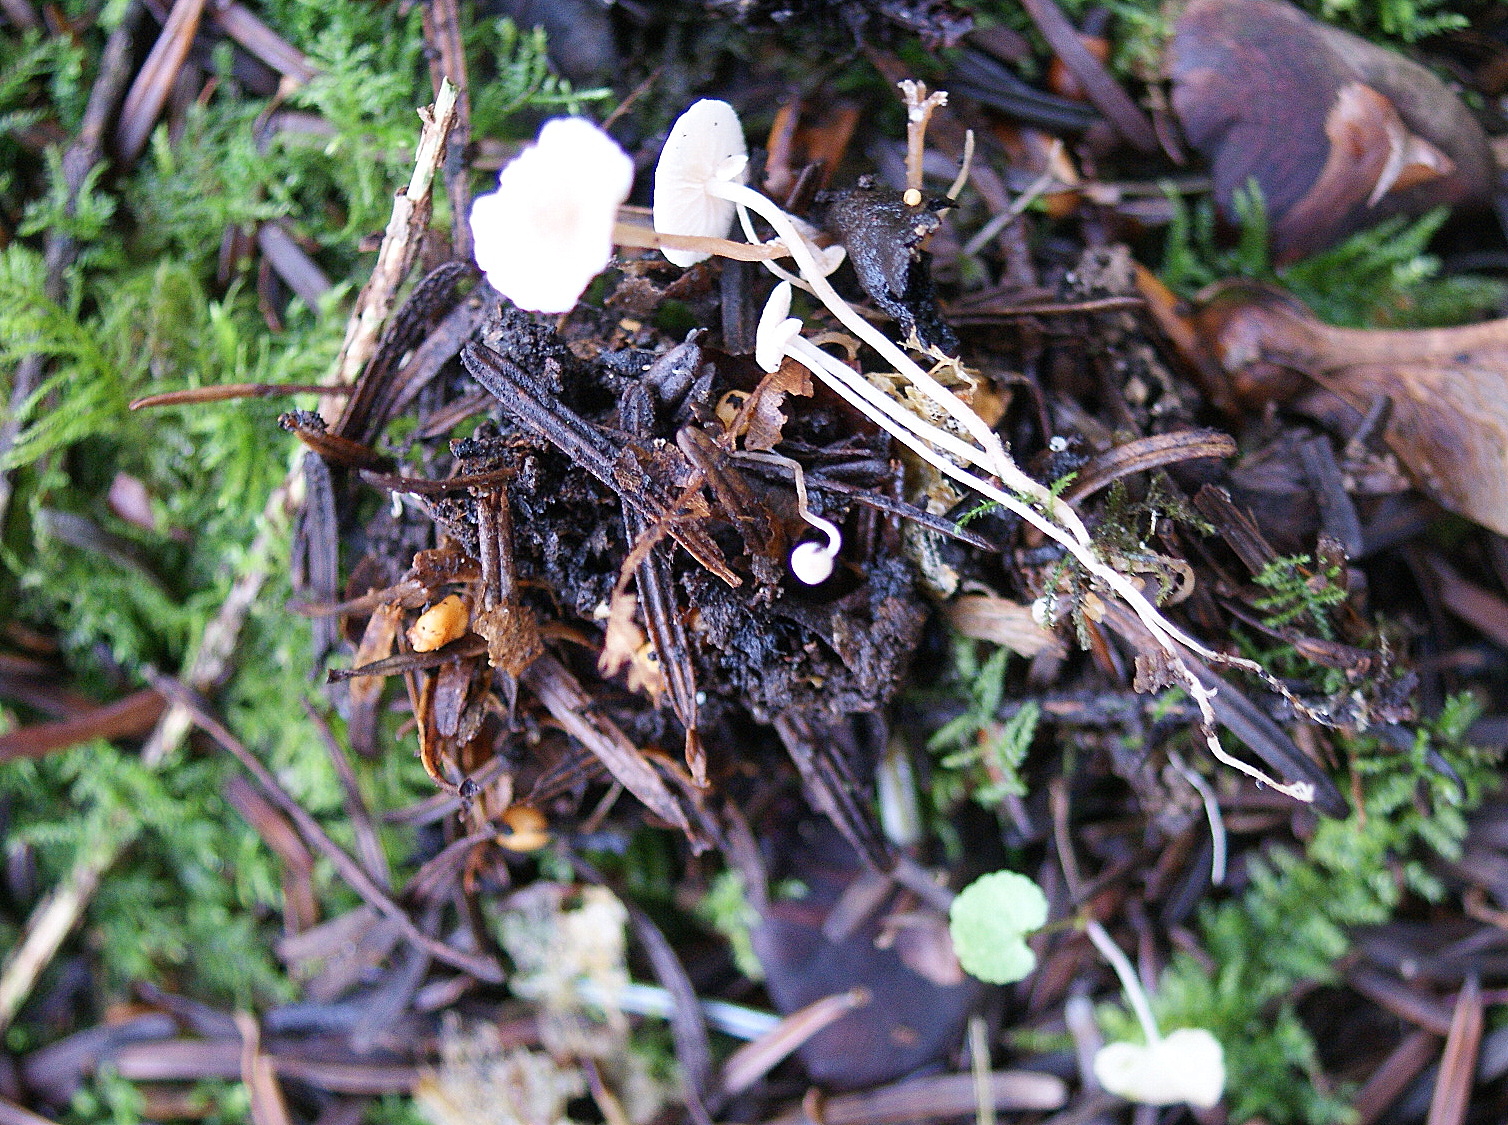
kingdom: Fungi
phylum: Basidiomycota
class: Agaricomycetes
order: Agaricales
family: Tricholomataceae
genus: Collybia
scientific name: Collybia cookei
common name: gulknoldet lighat
